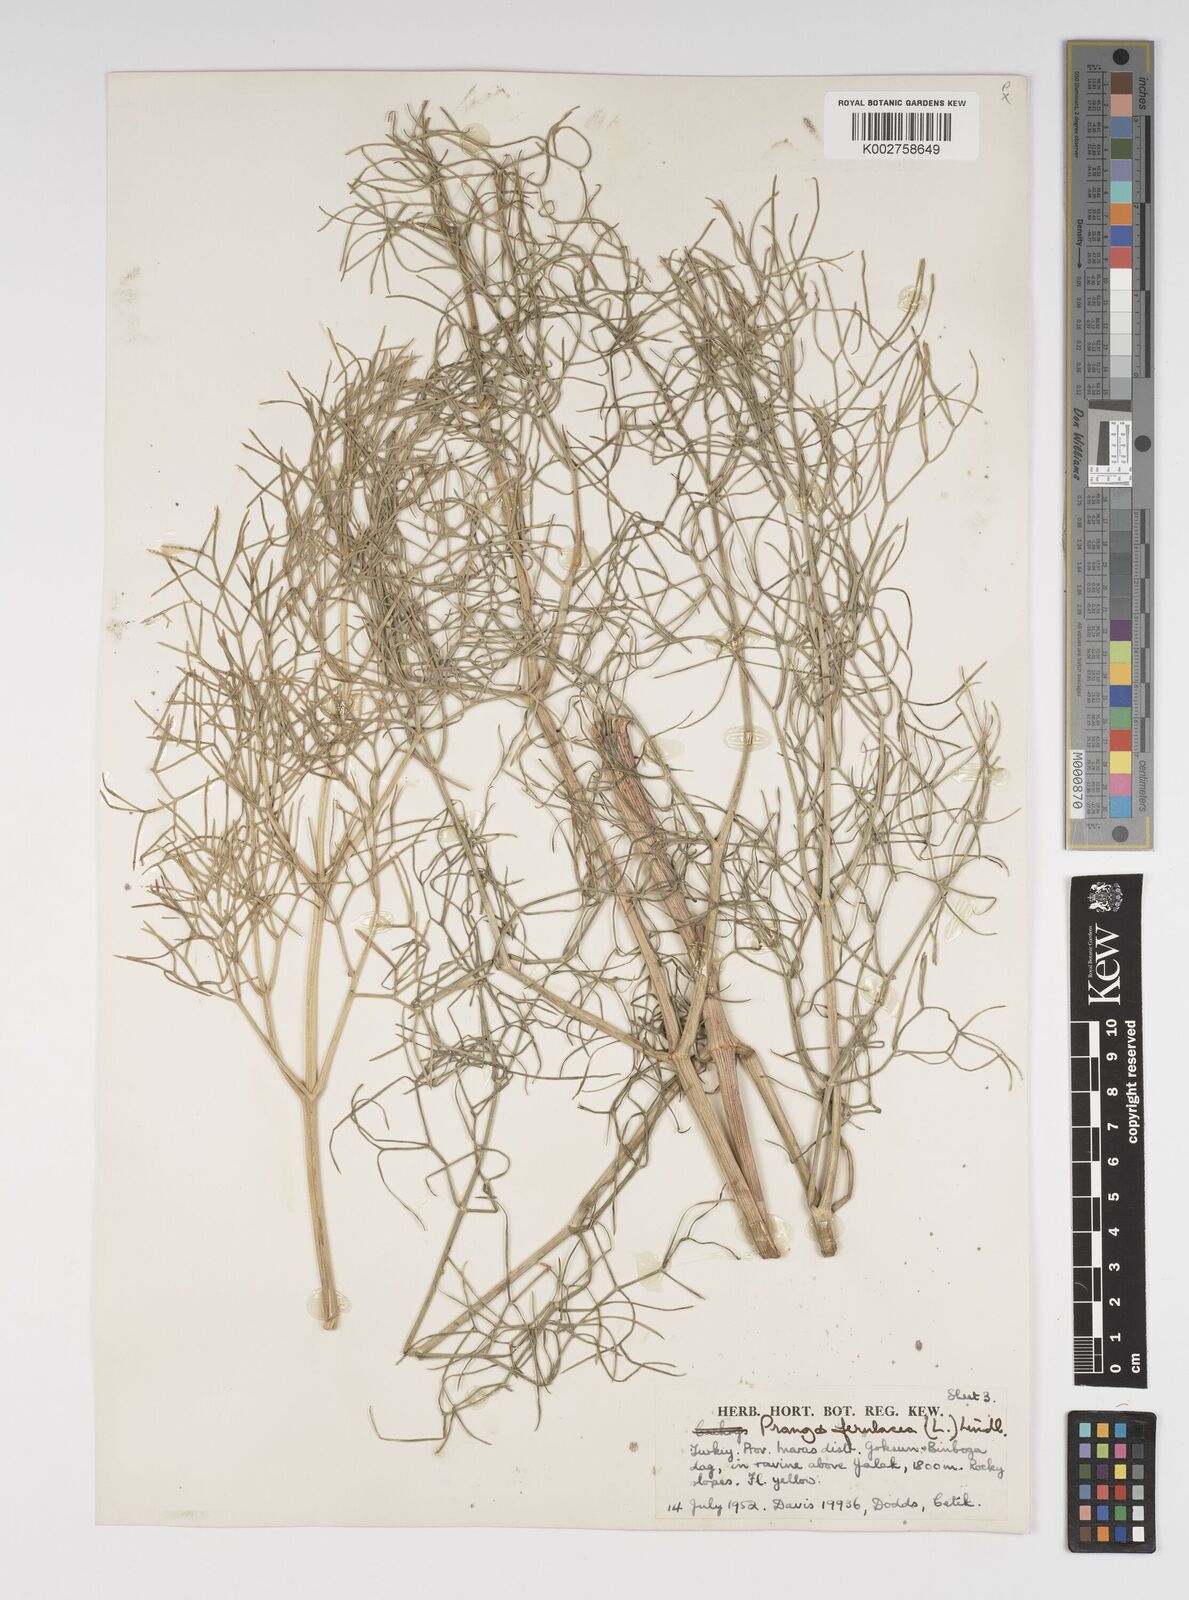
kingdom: Plantae
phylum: Tracheophyta
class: Magnoliopsida
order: Apiales
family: Apiaceae
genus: Prangos
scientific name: Prangos ferulacea
